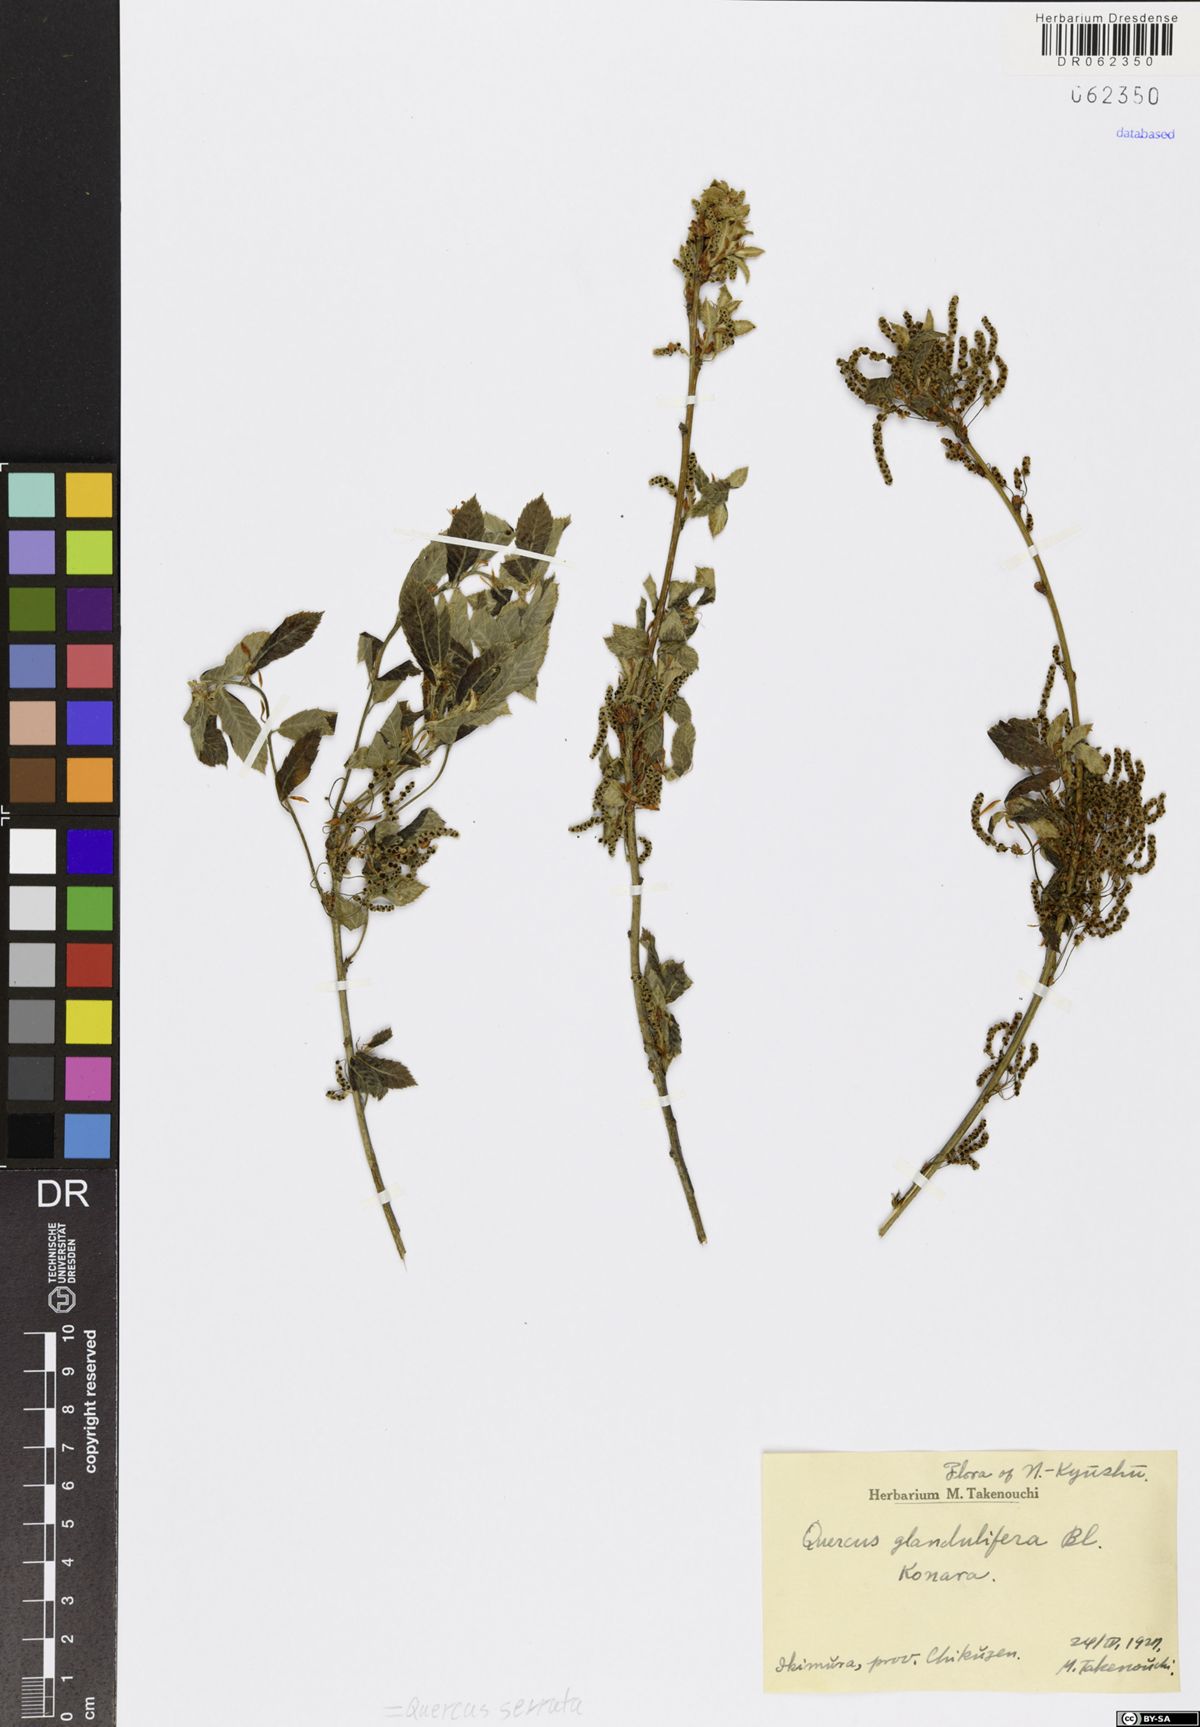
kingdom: Plantae
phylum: Tracheophyta
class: Magnoliopsida
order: Fagales
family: Fagaceae
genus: Quercus
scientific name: Quercus serrata
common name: Bao li
